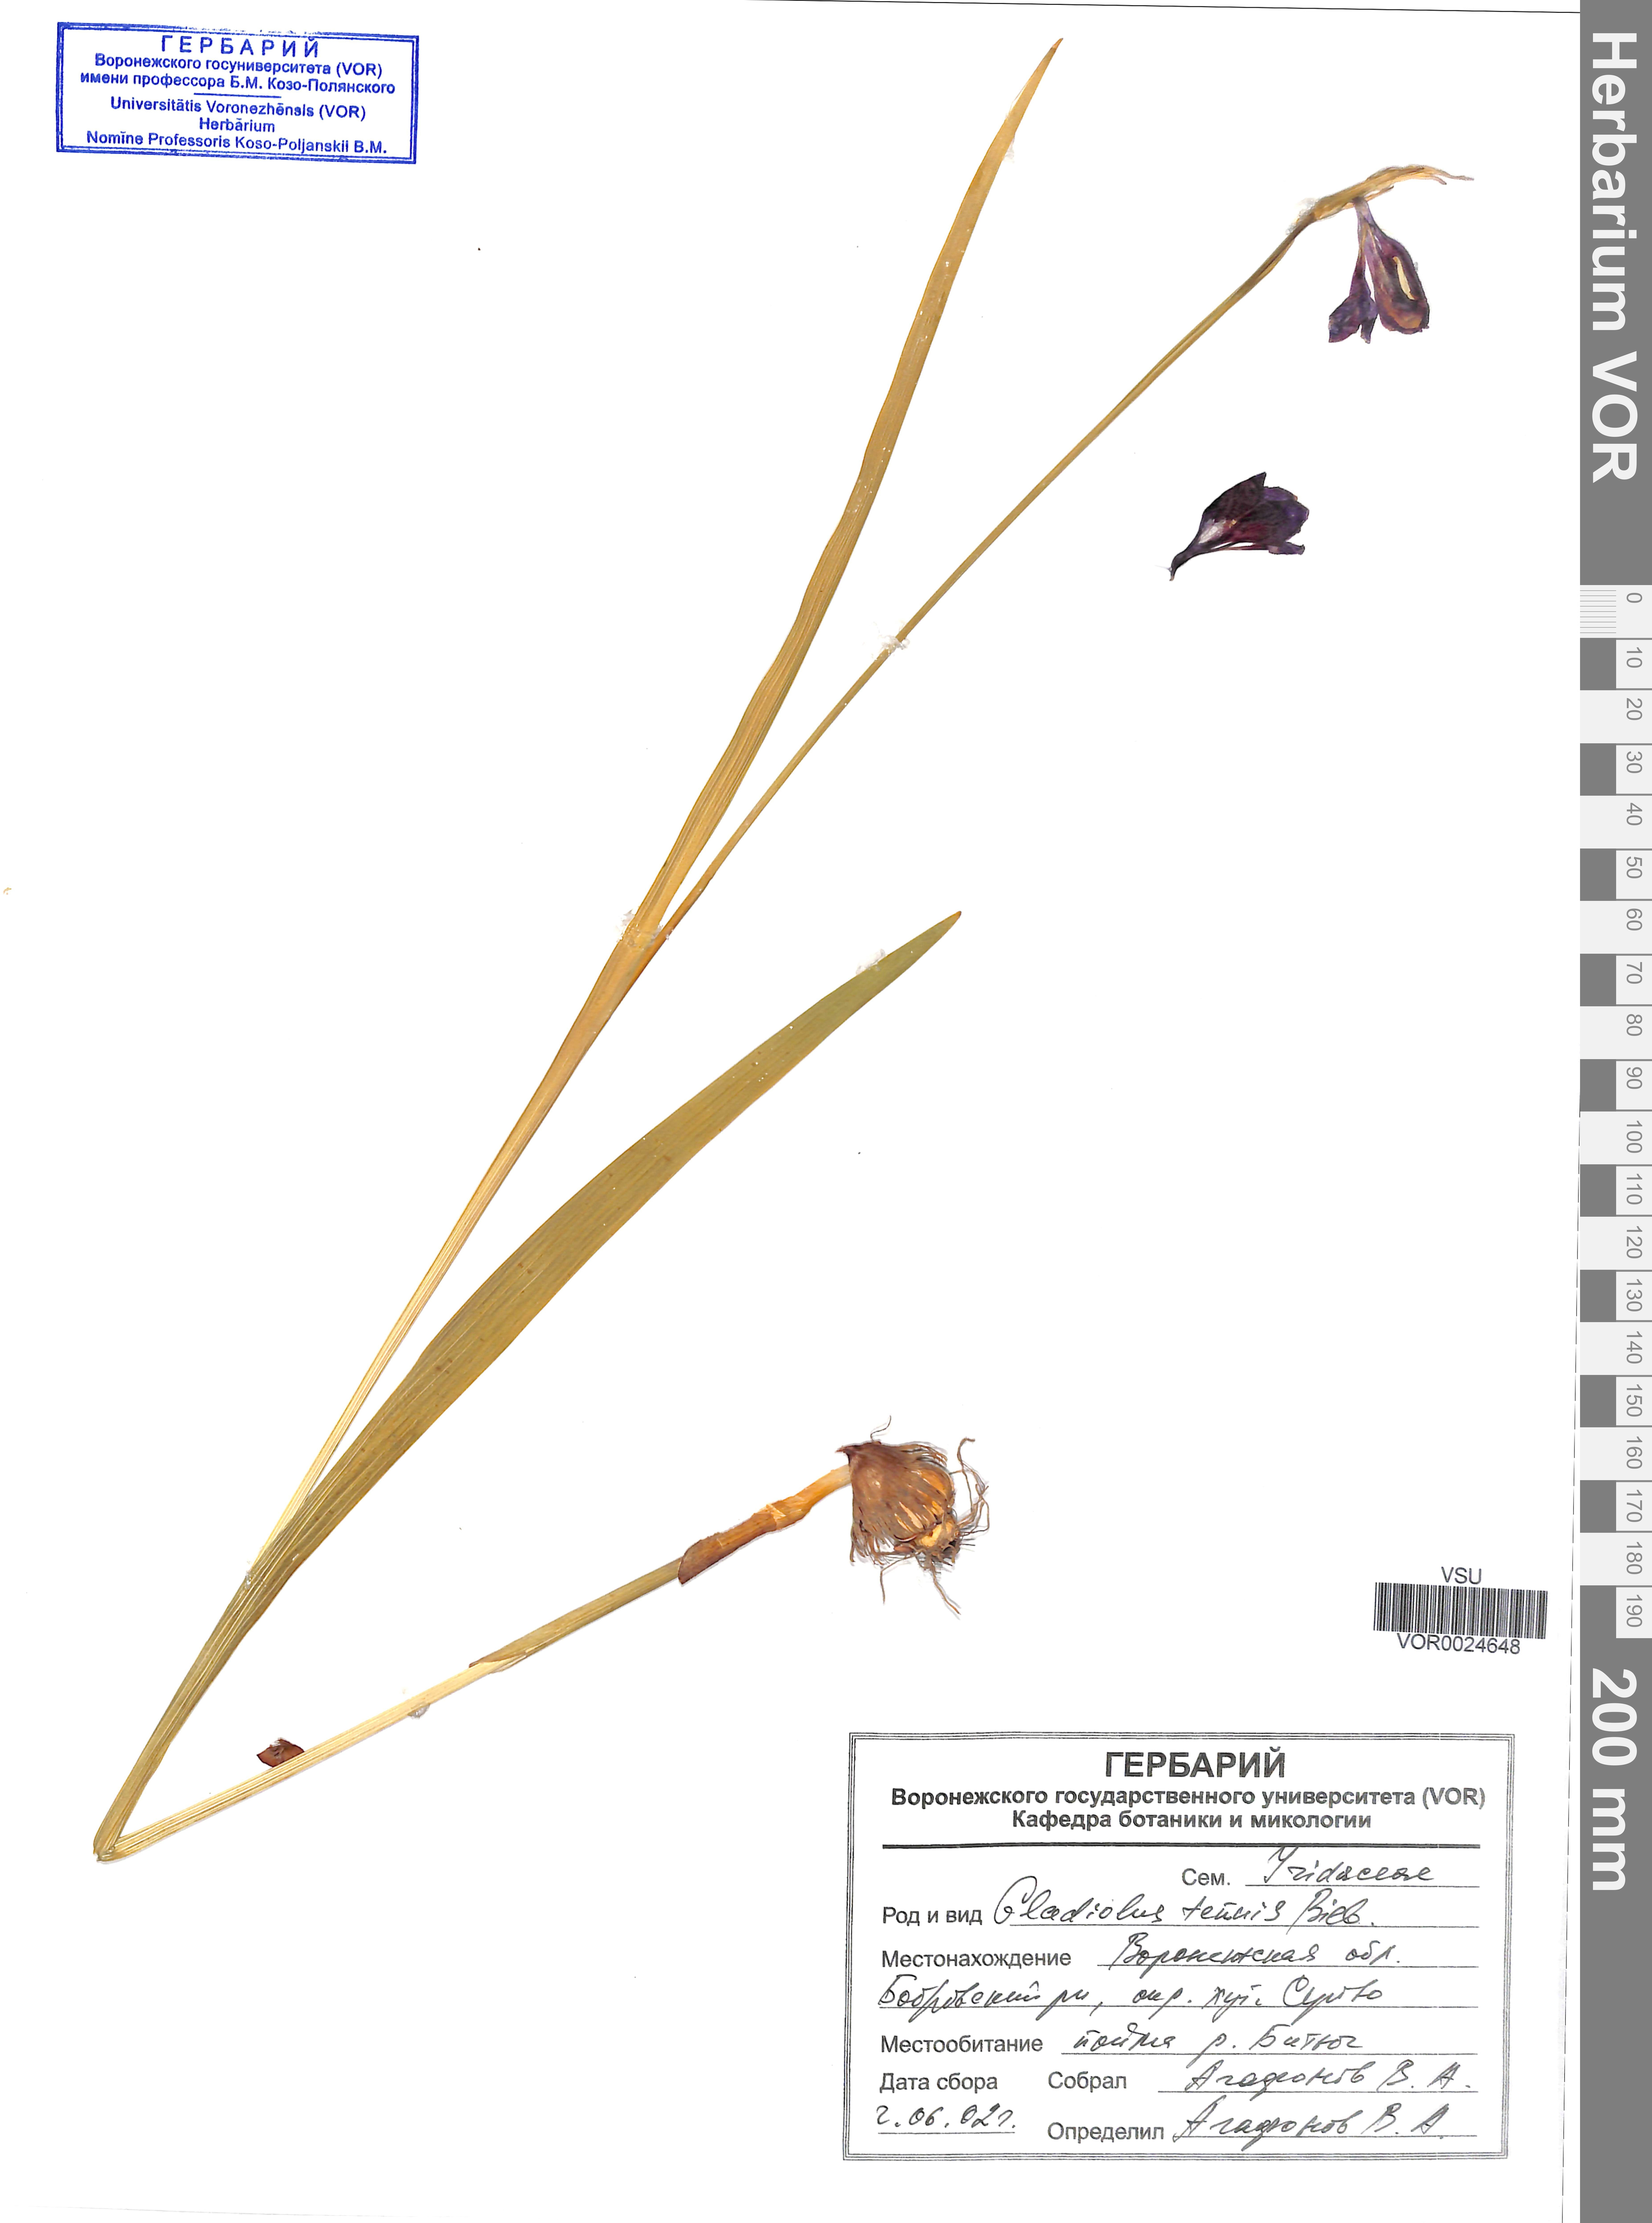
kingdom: Plantae
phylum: Tracheophyta
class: Liliopsida
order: Asparagales
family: Iridaceae
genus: Gladiolus
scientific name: Gladiolus tenuis
